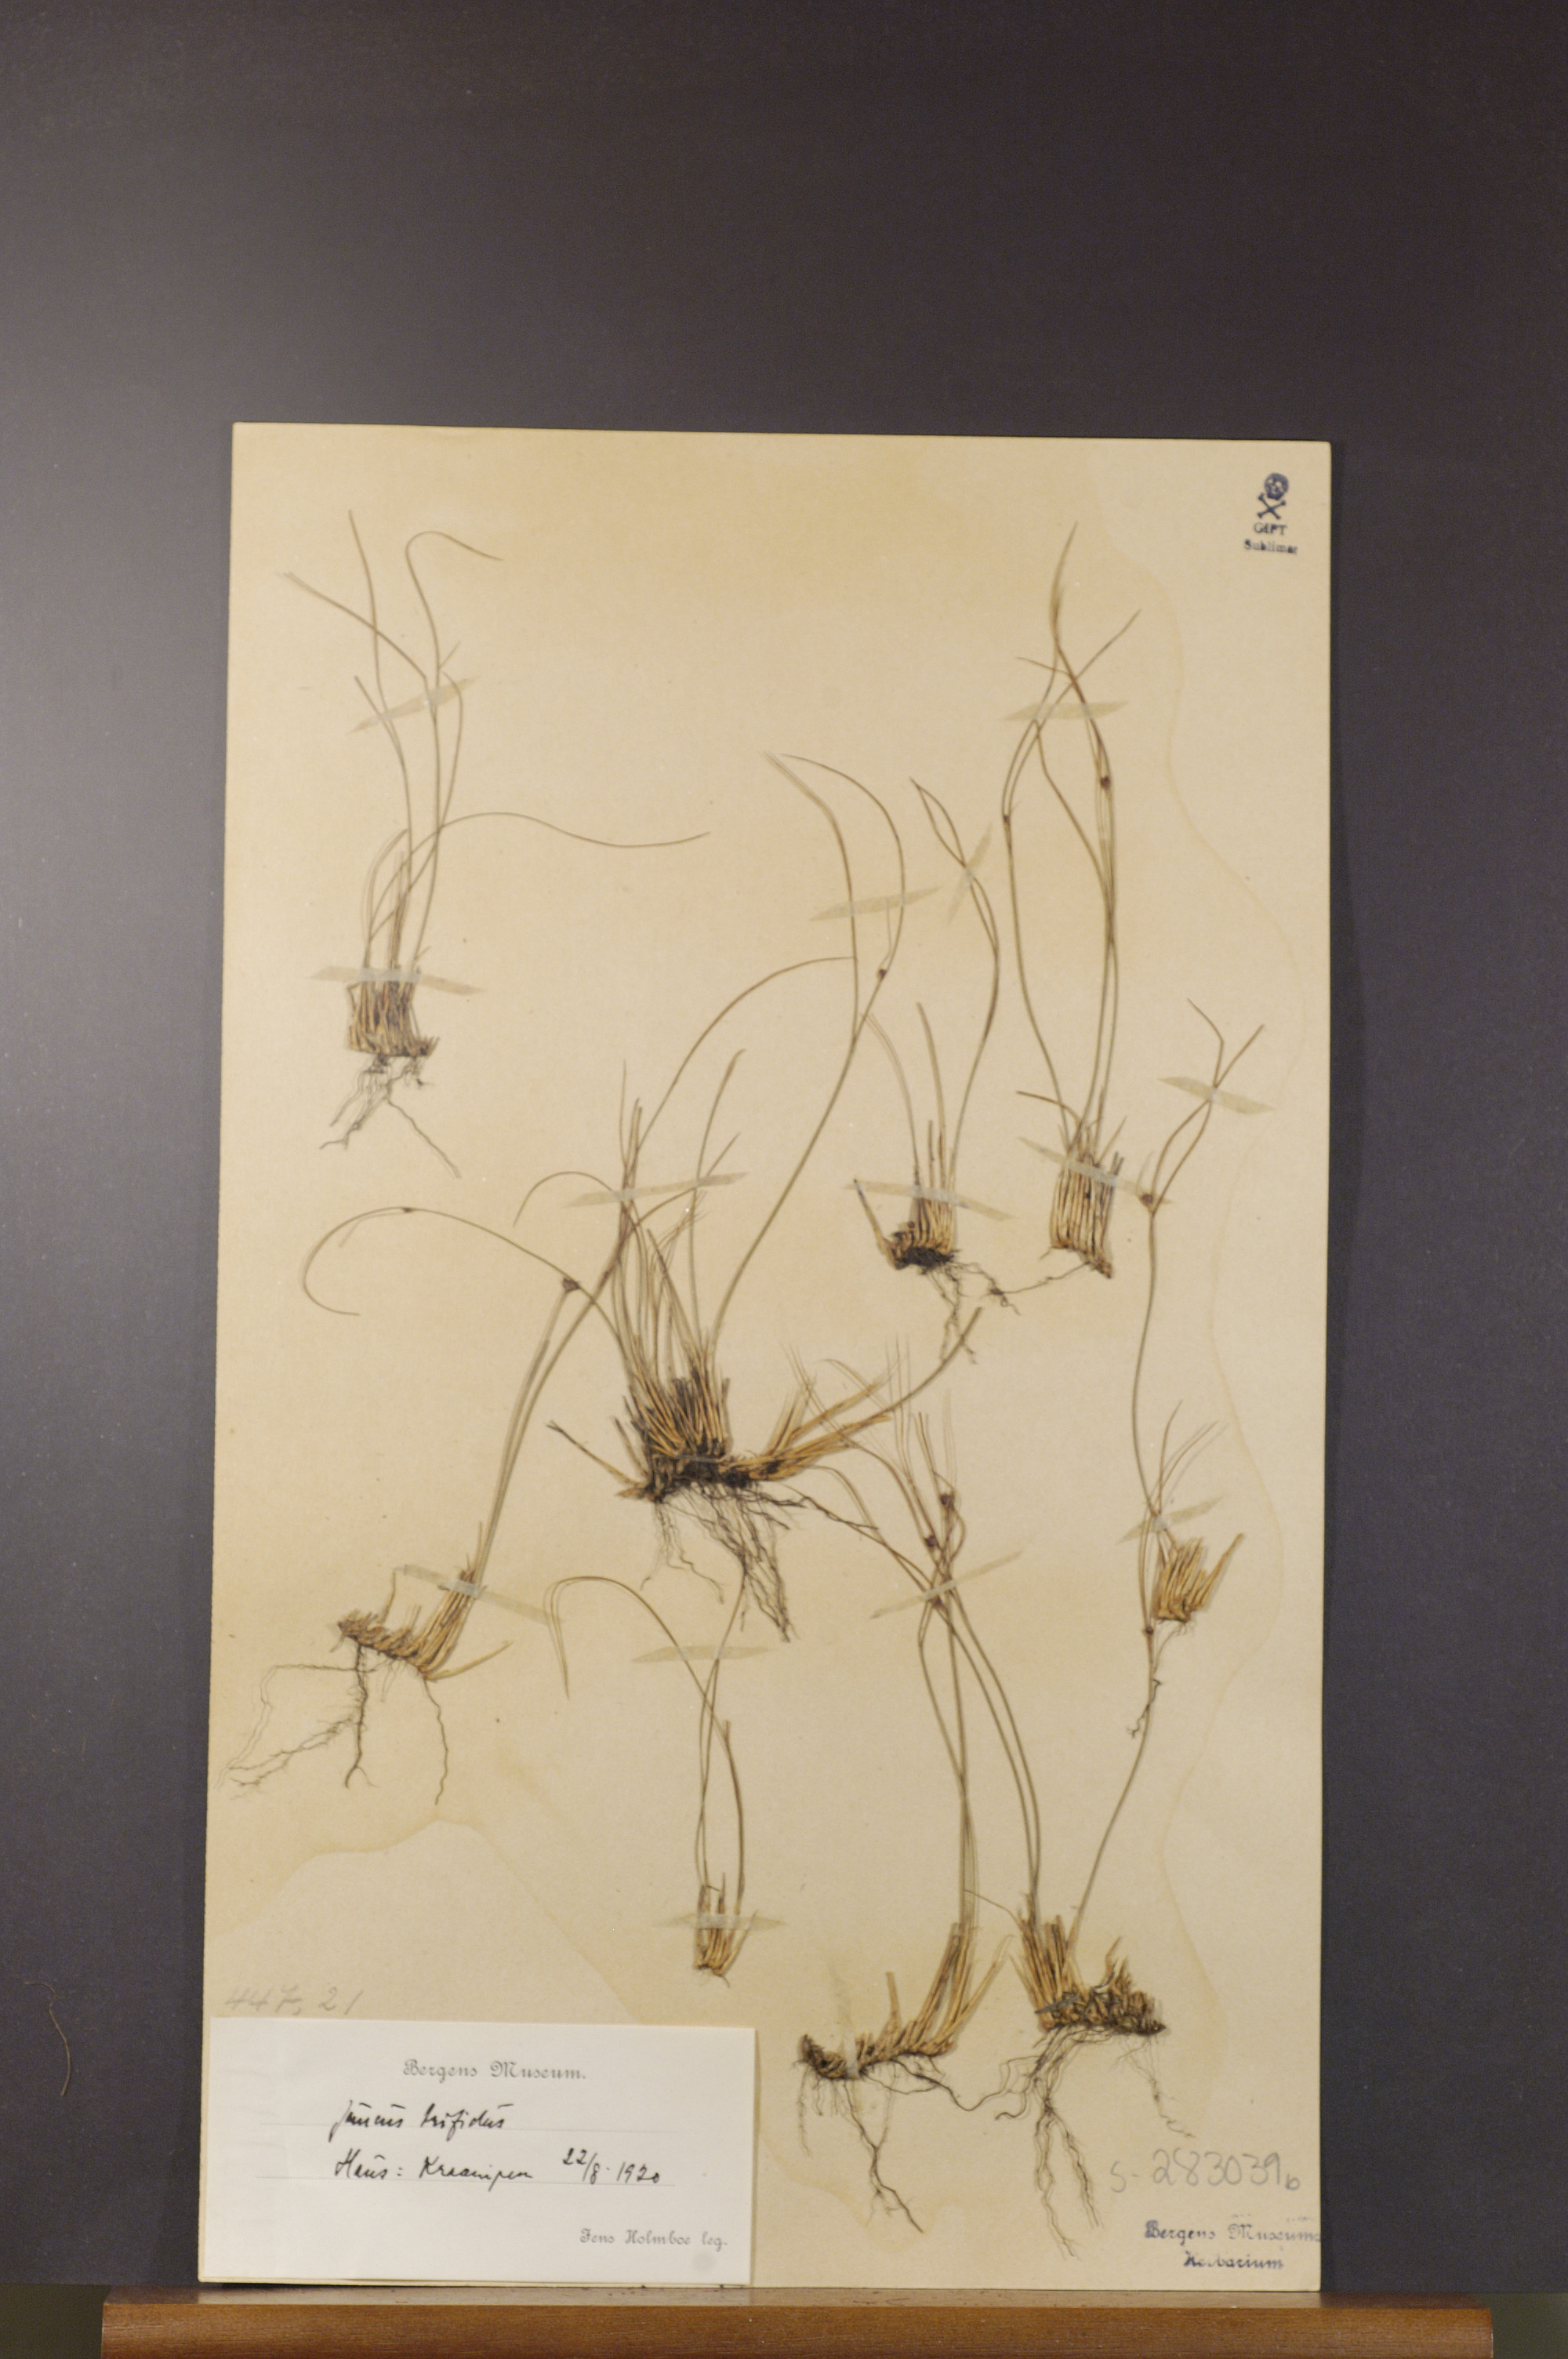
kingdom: Plantae
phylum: Tracheophyta
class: Liliopsida
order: Poales
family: Juncaceae
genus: Oreojuncus
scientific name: Oreojuncus trifidus
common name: Highland rush
